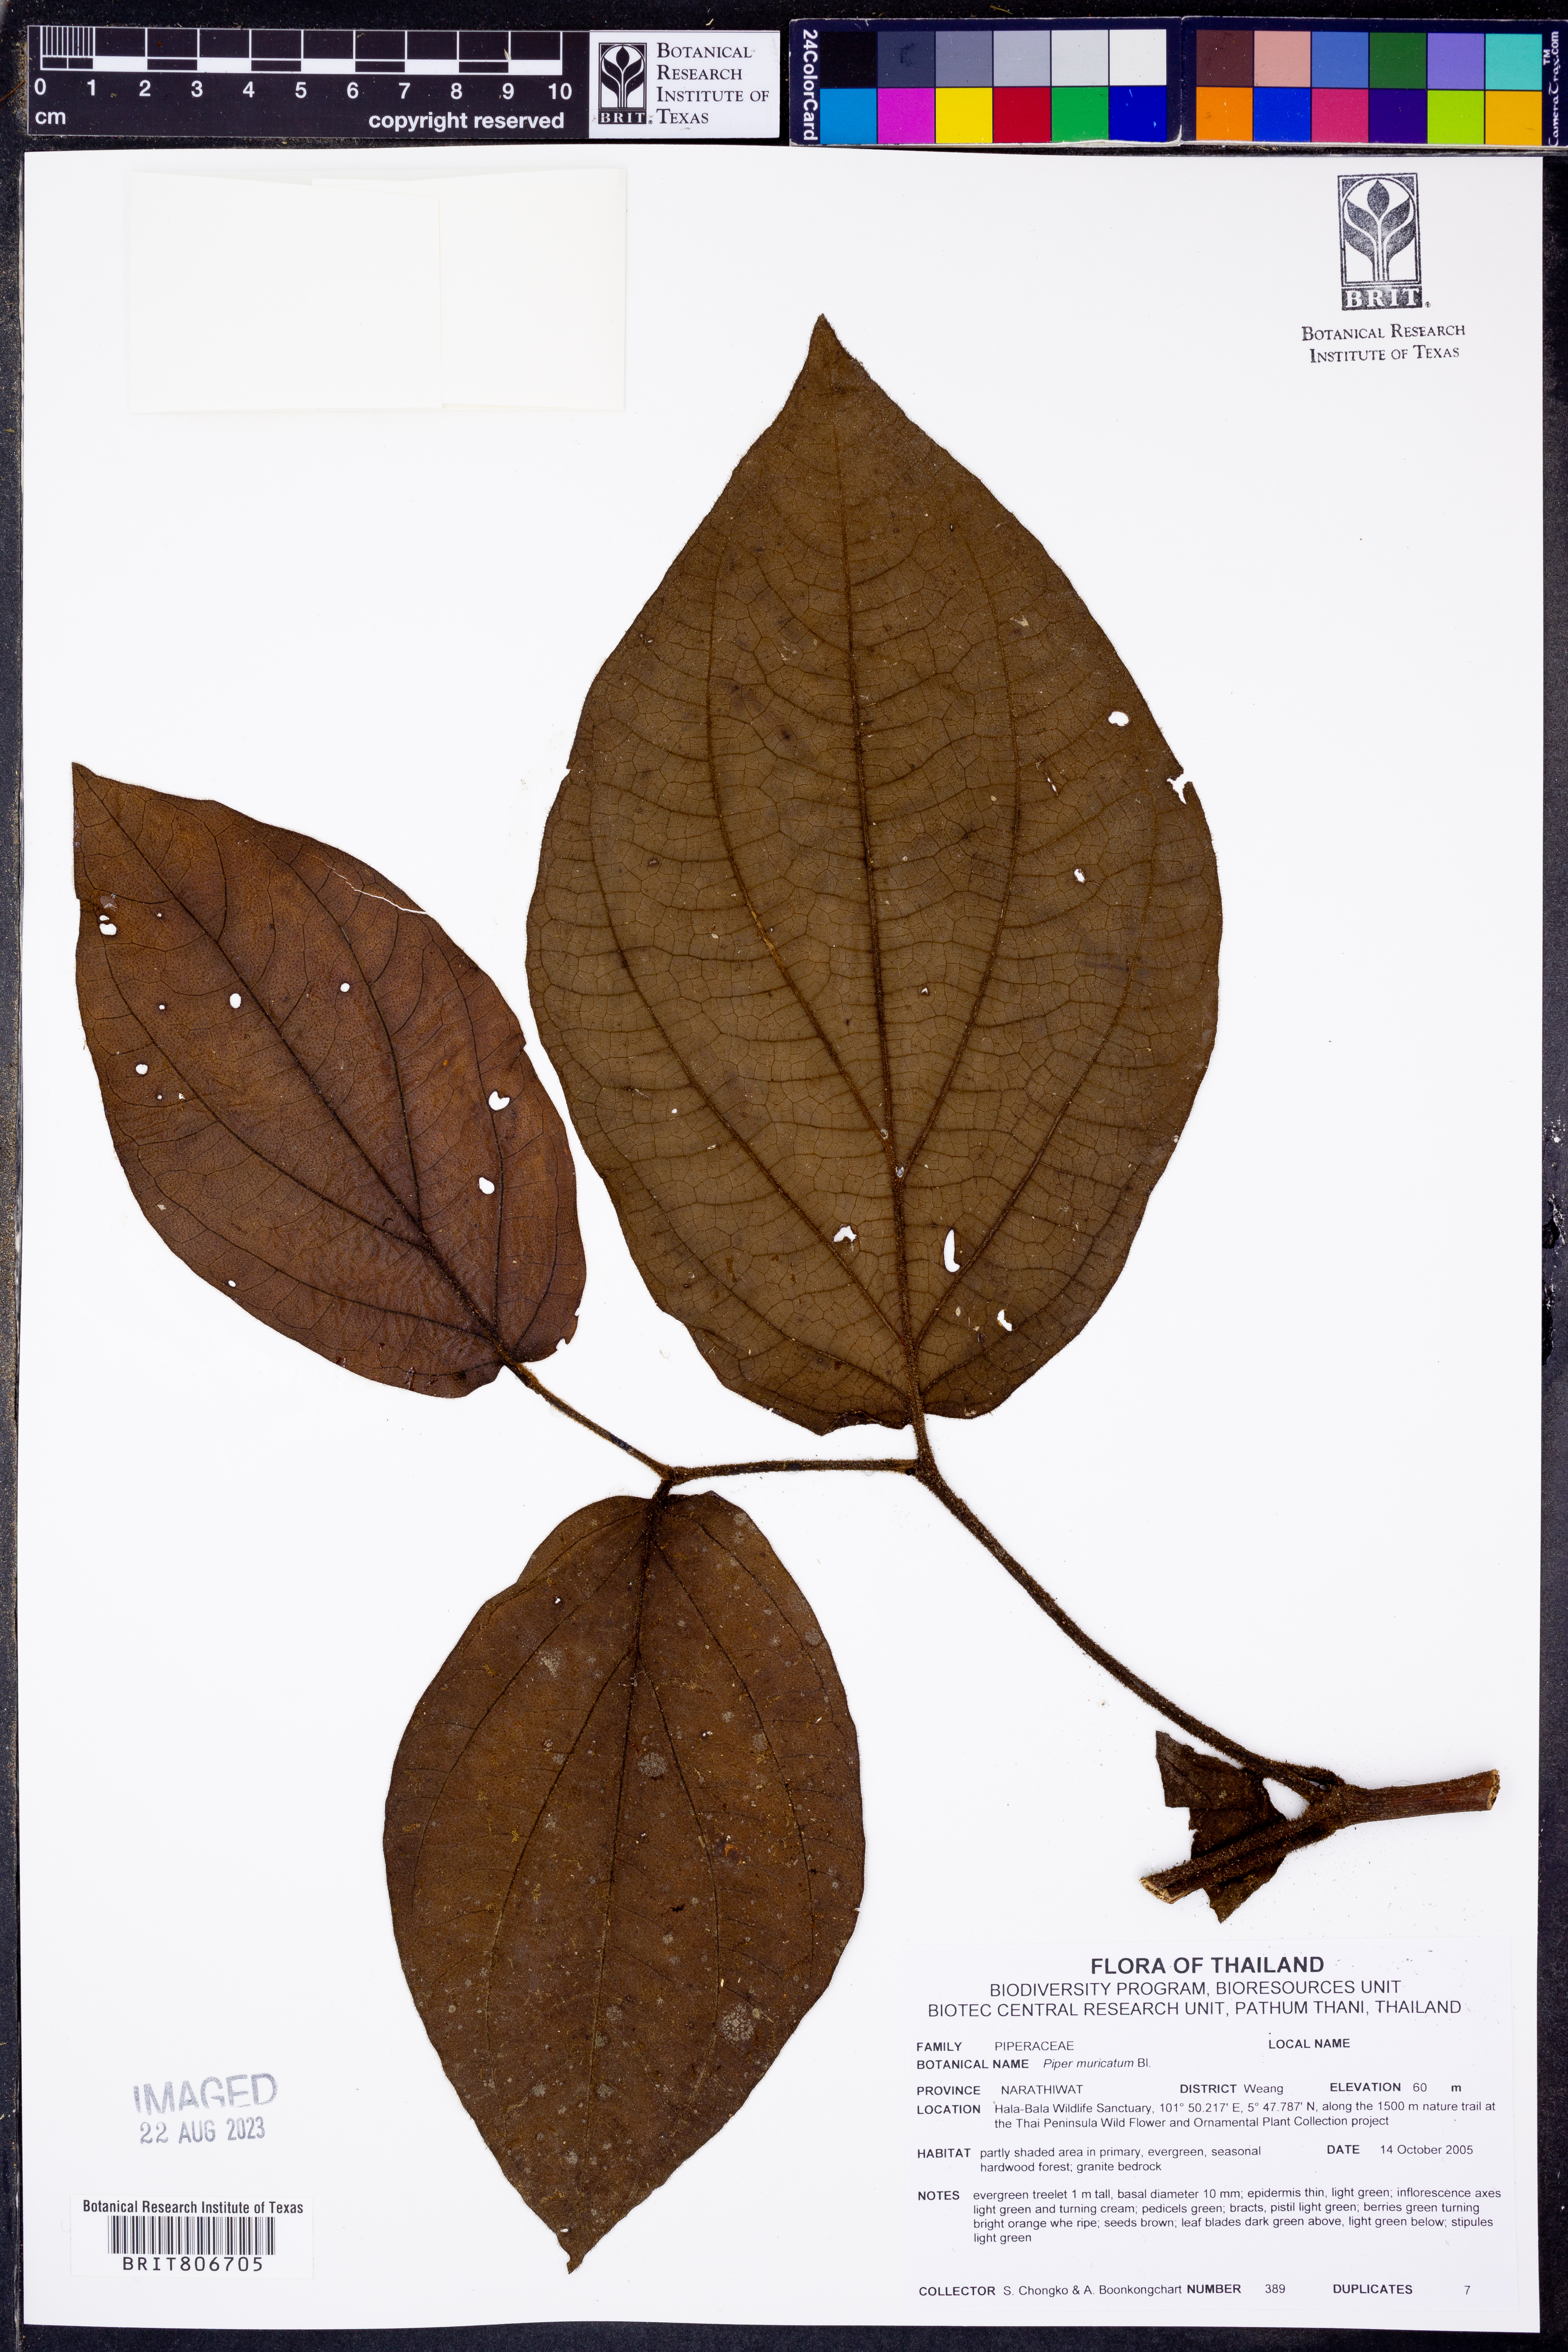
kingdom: Plantae
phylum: Tracheophyta
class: Magnoliopsida
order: Piperales
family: Piperaceae
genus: Piper
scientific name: Piper muricatum
